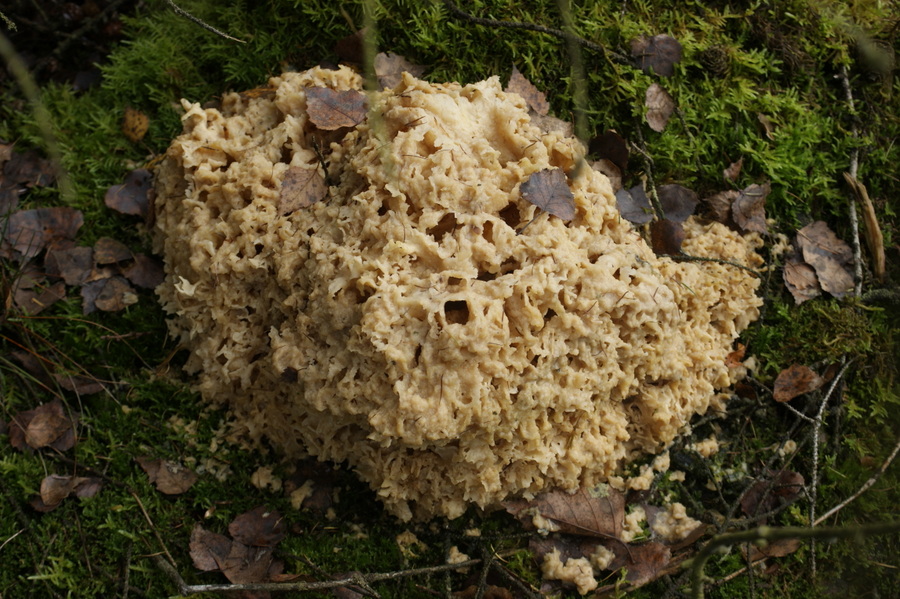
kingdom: Fungi
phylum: Basidiomycota
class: Agaricomycetes
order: Polyporales
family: Sparassidaceae
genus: Sparassis
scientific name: Sparassis crispa
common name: kruset blomkålssvamp
